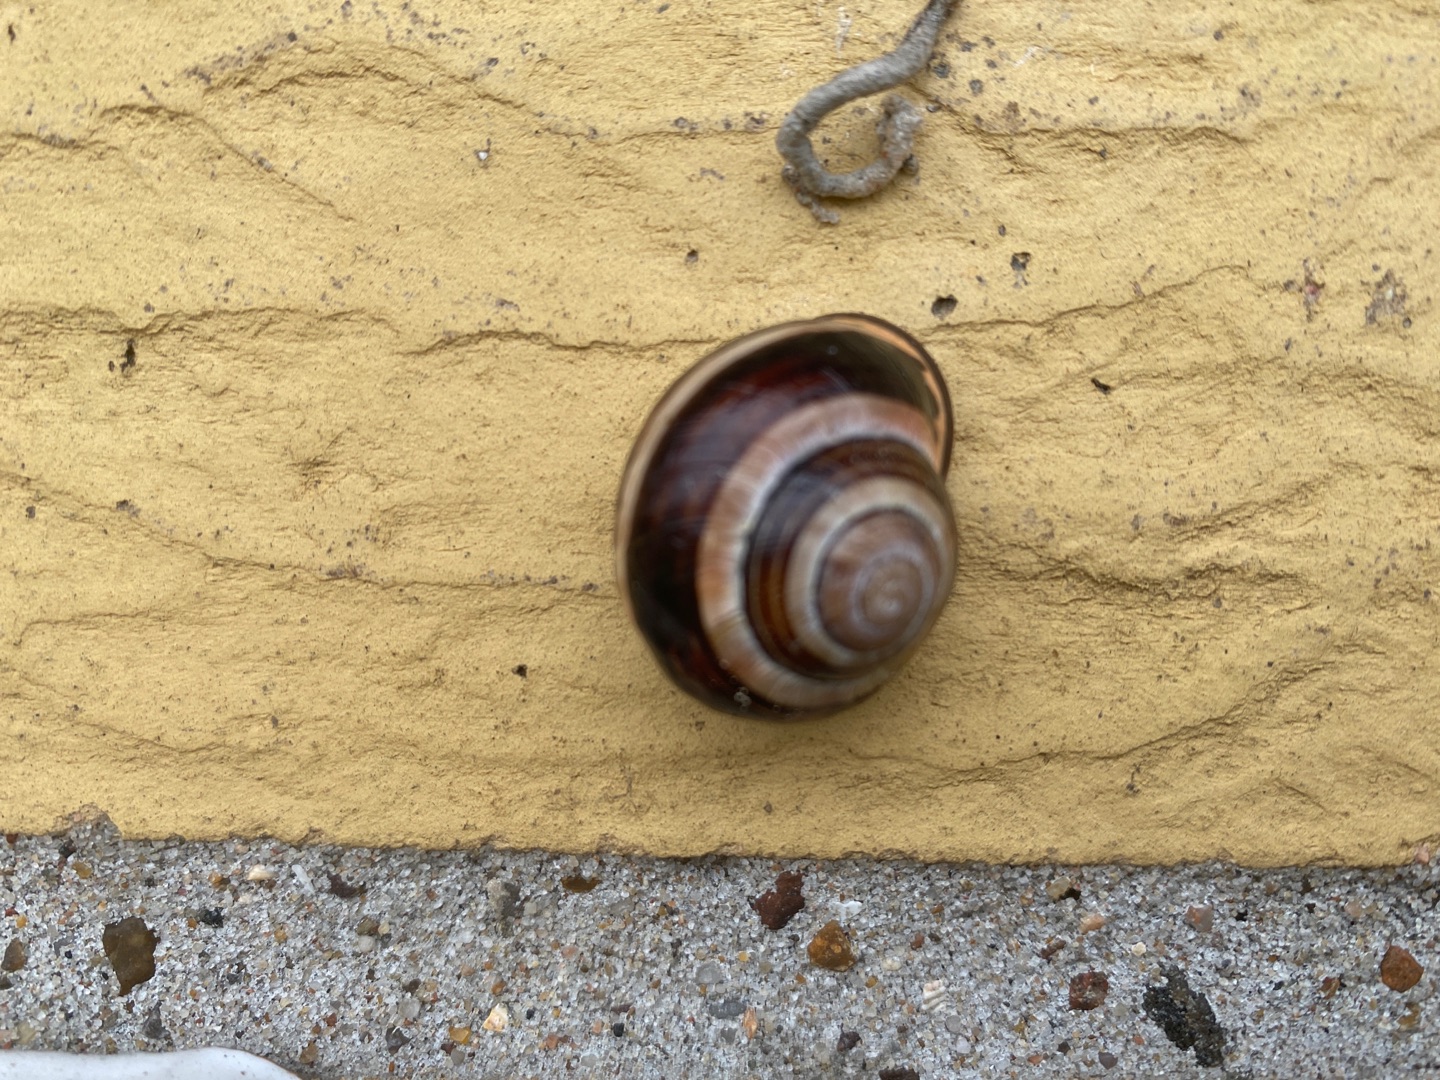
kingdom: Animalia
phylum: Mollusca
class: Gastropoda
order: Stylommatophora
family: Helicidae
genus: Cepaea
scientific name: Cepaea nemoralis
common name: Lundsnegl
